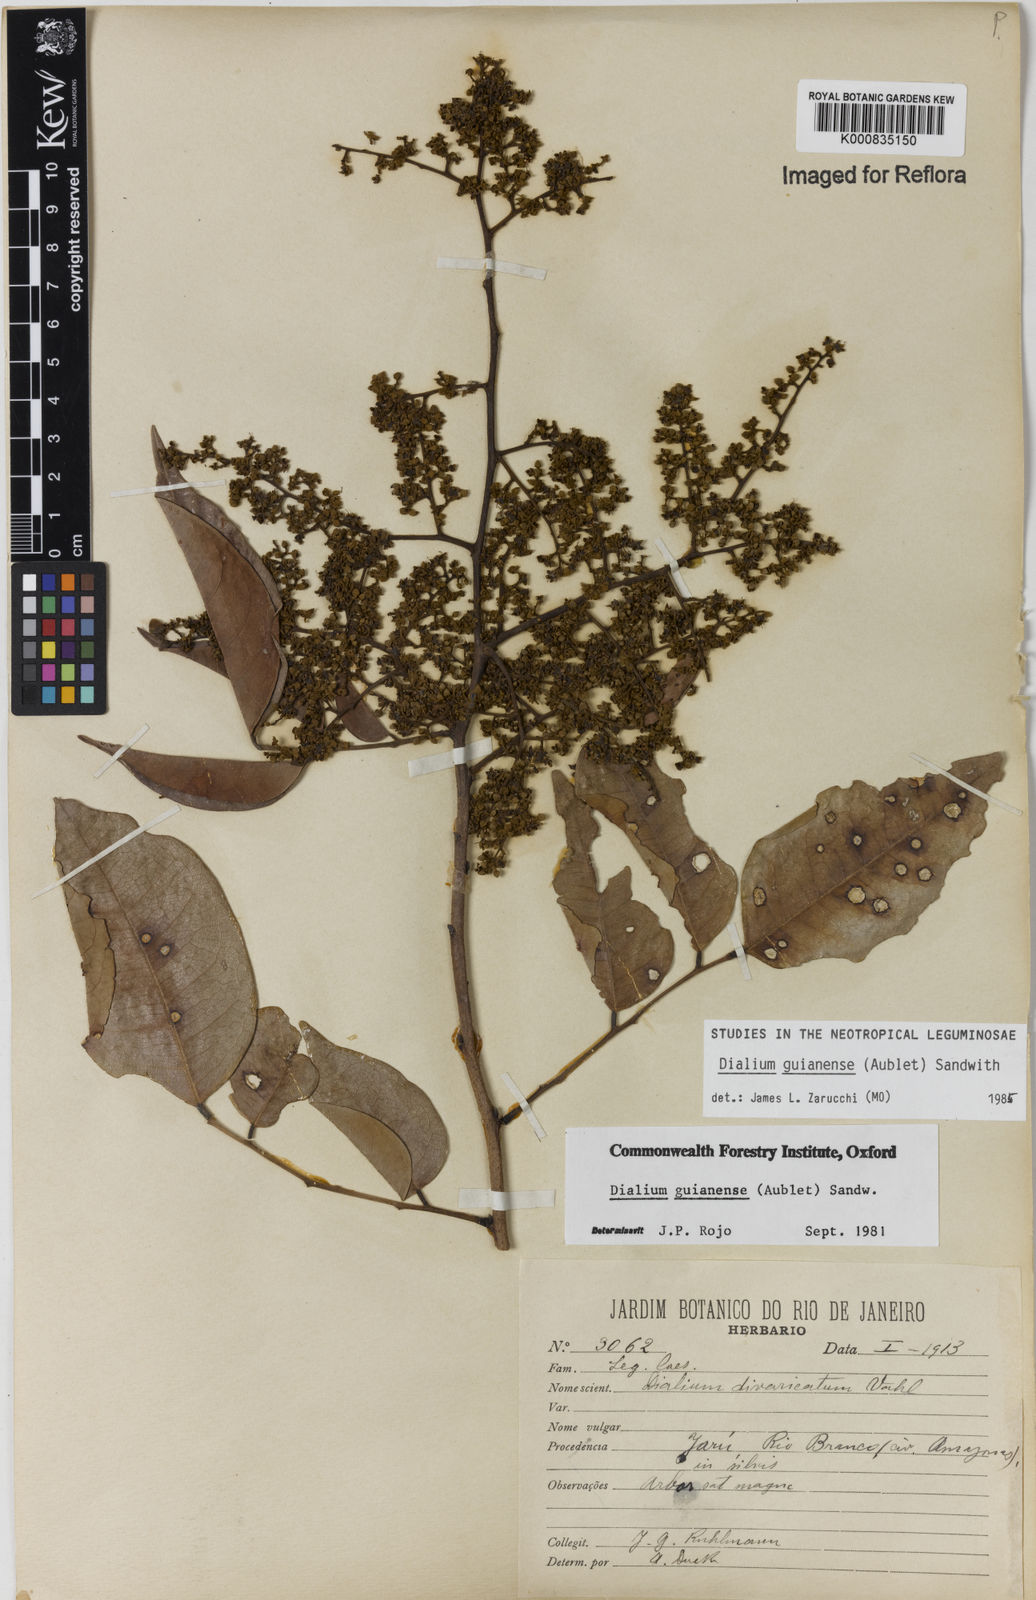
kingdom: Plantae
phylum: Tracheophyta
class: Magnoliopsida
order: Fabales
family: Fabaceae
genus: Dialium
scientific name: Dialium guianense
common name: Ironwood
